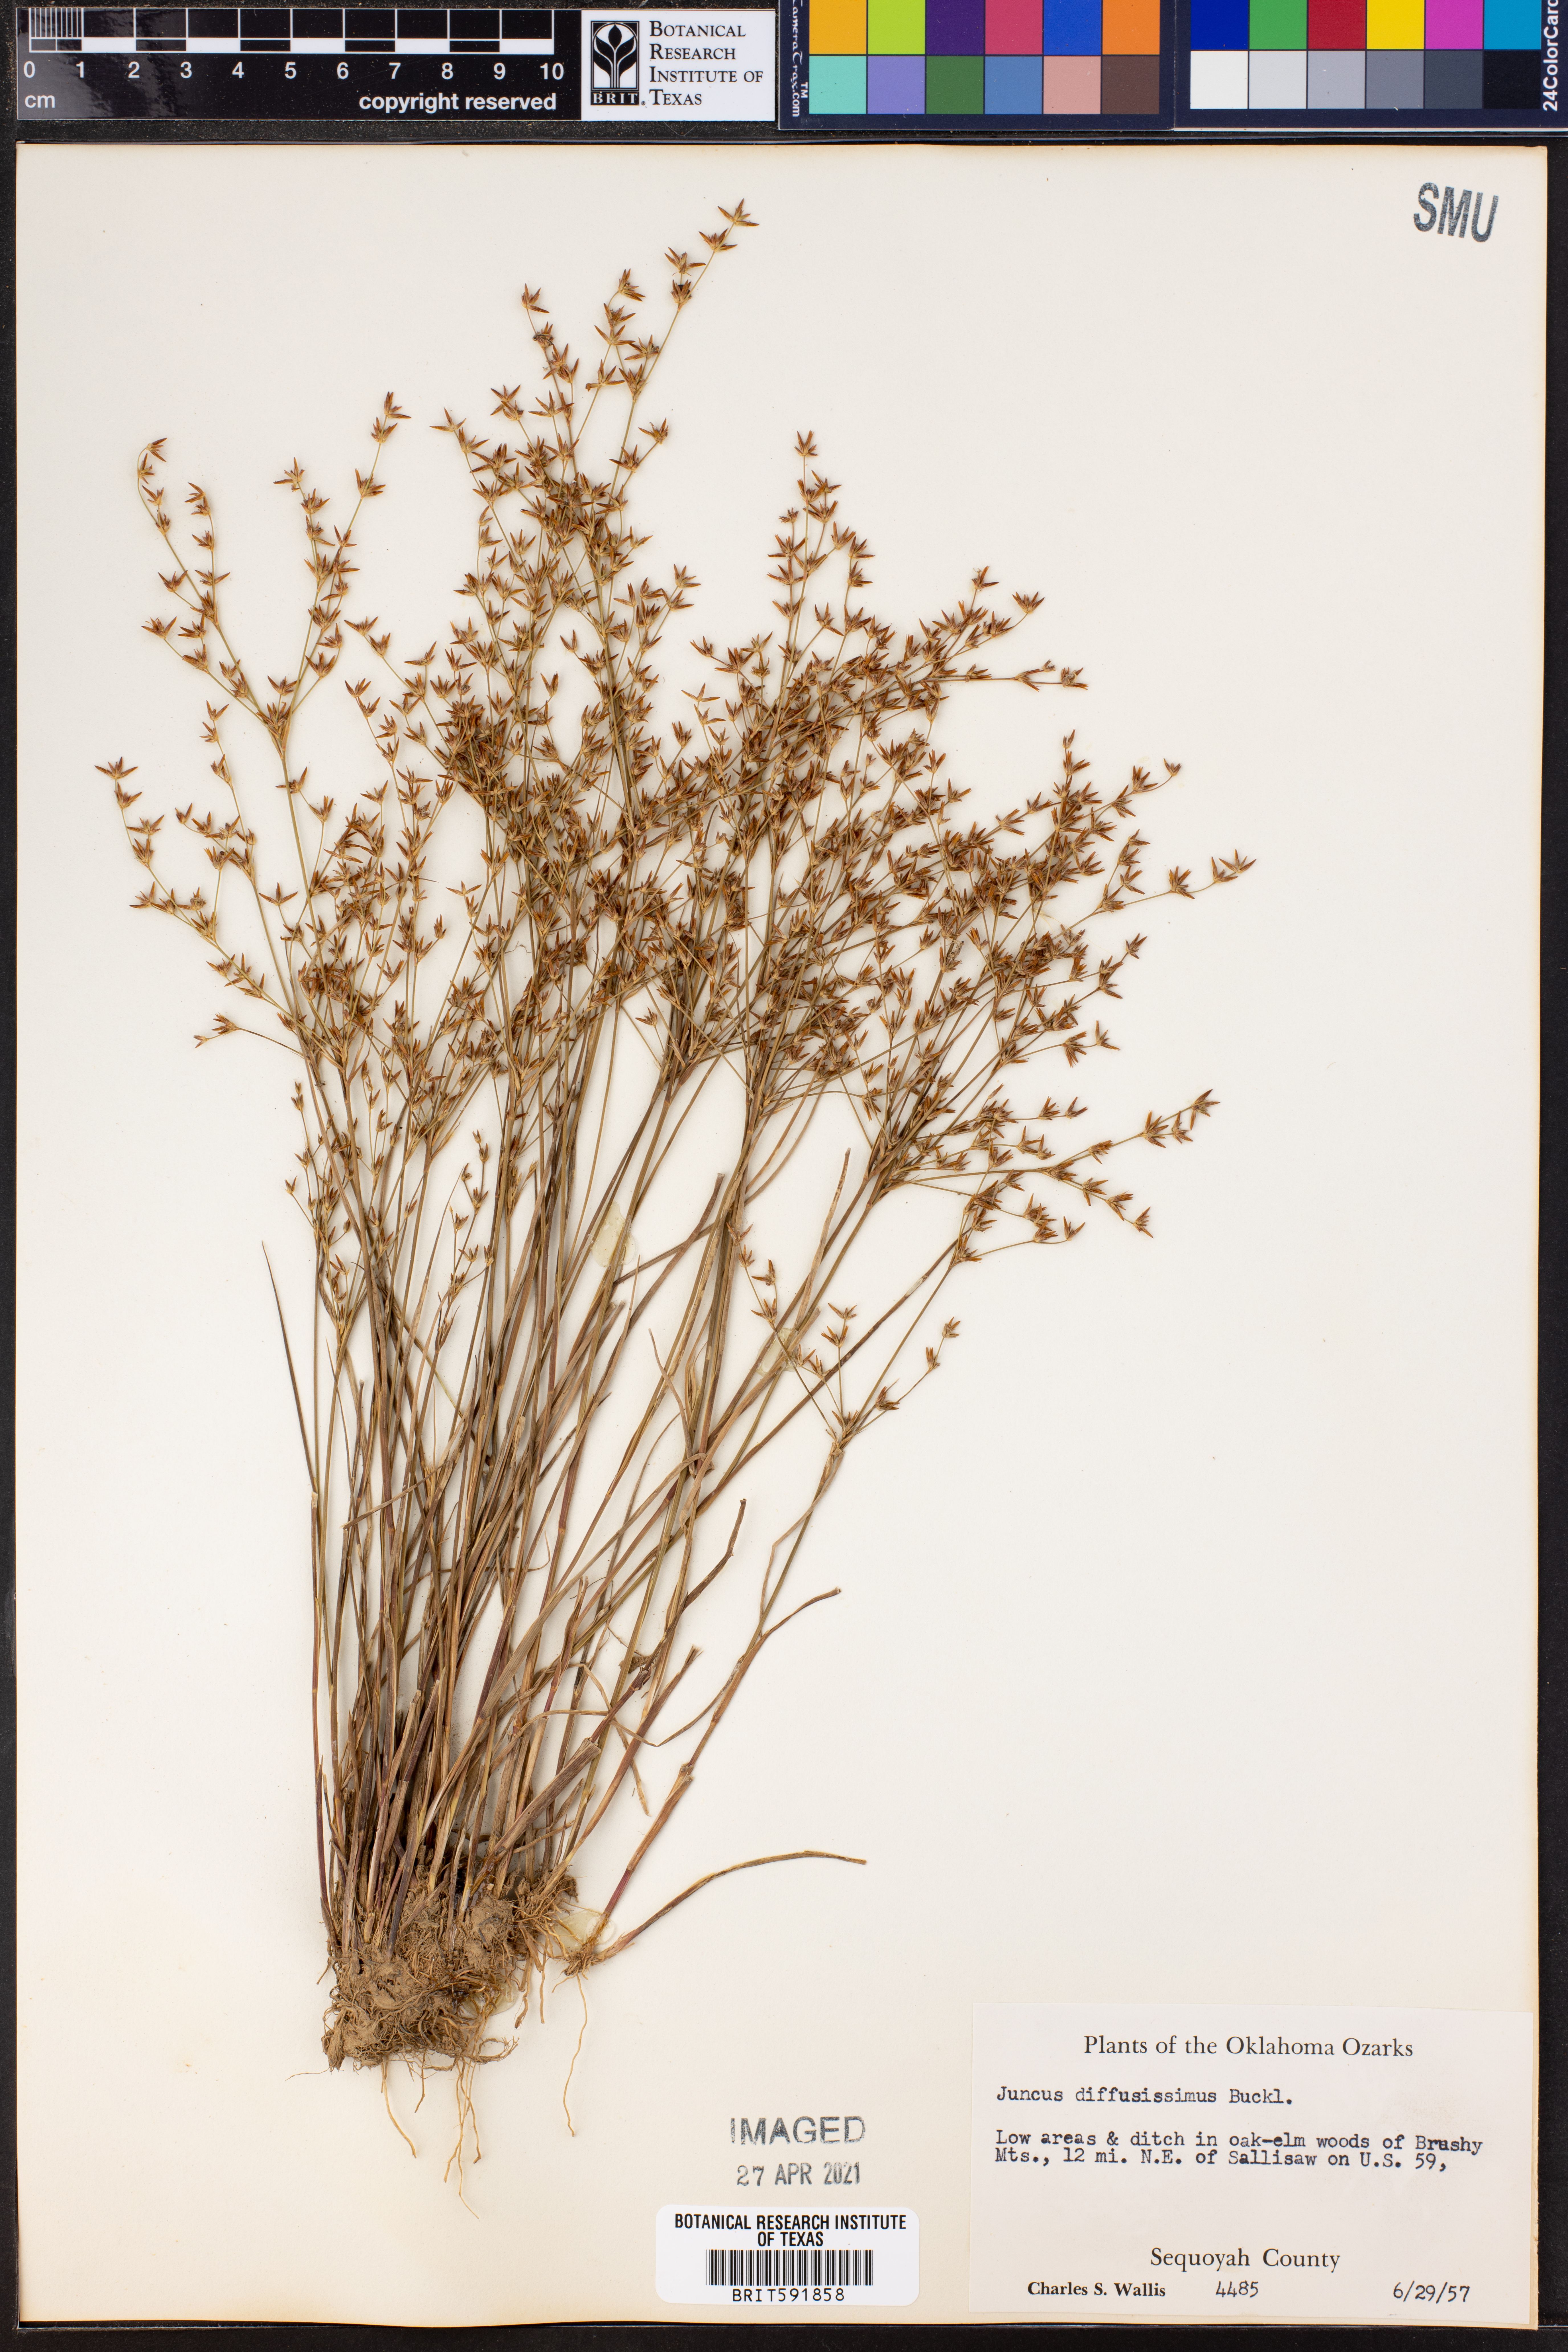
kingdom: Plantae
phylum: Tracheophyta
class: Liliopsida
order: Poales
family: Juncaceae
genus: Juncus
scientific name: Juncus diffusissimus
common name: Slimpod rush
